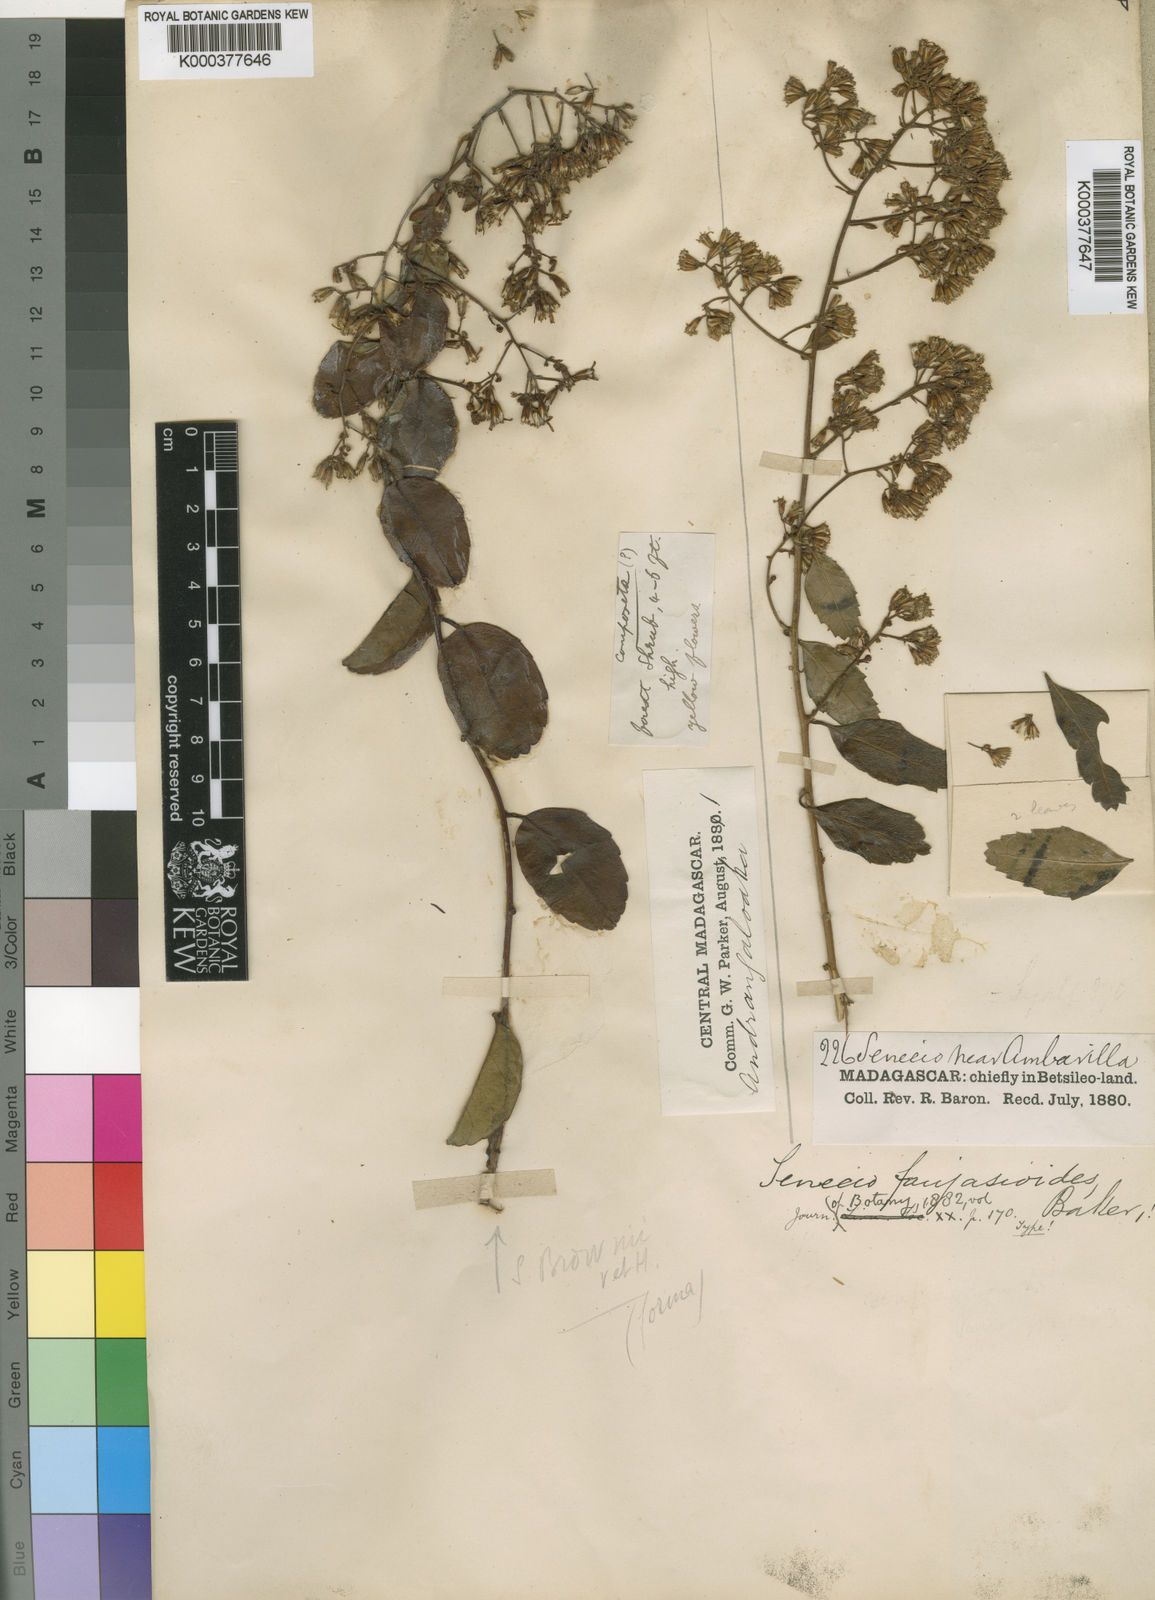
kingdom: Plantae
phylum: Tracheophyta
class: Magnoliopsida
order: Asterales
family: Asteraceae
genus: Hubertia
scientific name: Hubertia faujasioides
